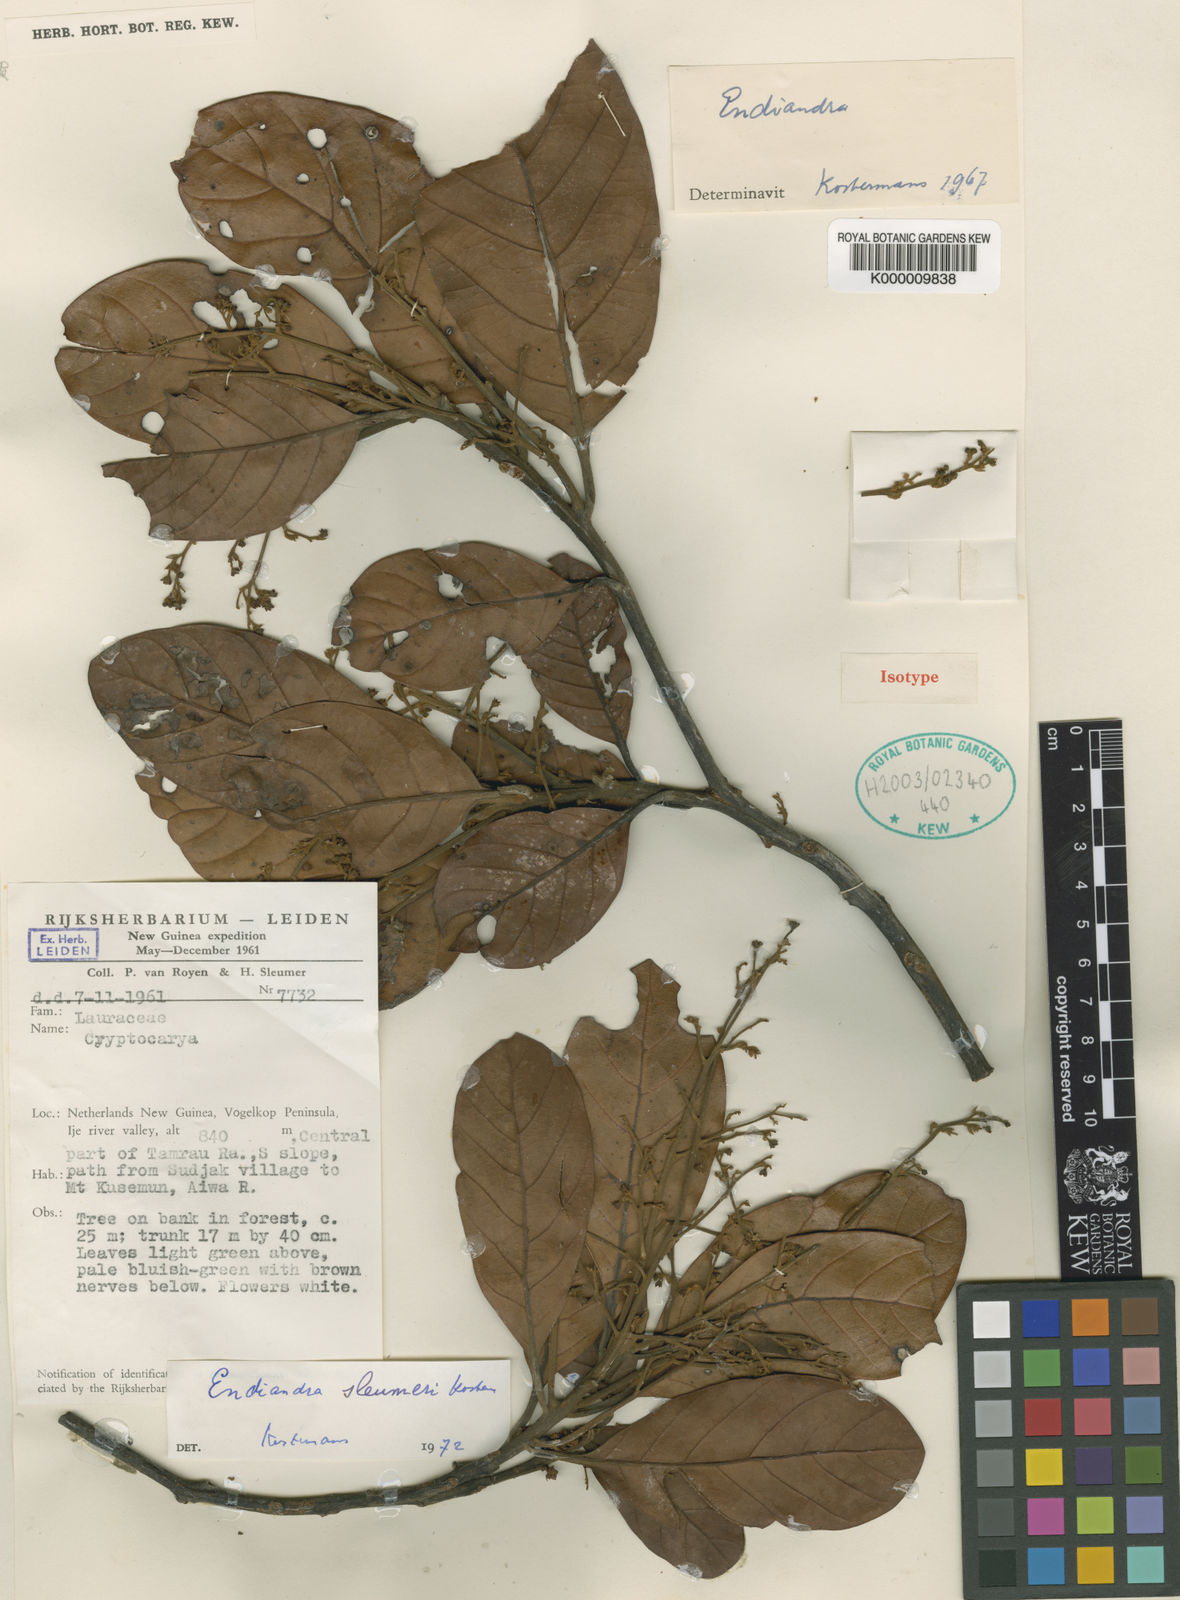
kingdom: Plantae
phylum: Tracheophyta
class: Magnoliopsida
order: Laurales
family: Lauraceae
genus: Endiandra
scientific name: Endiandra sleumeri
